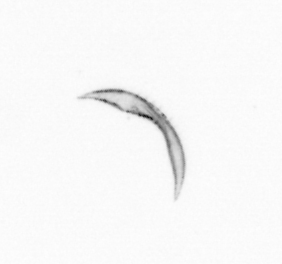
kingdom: Chromista
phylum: Ochrophyta
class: Bacillariophyceae
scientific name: Bacillariophyceae
